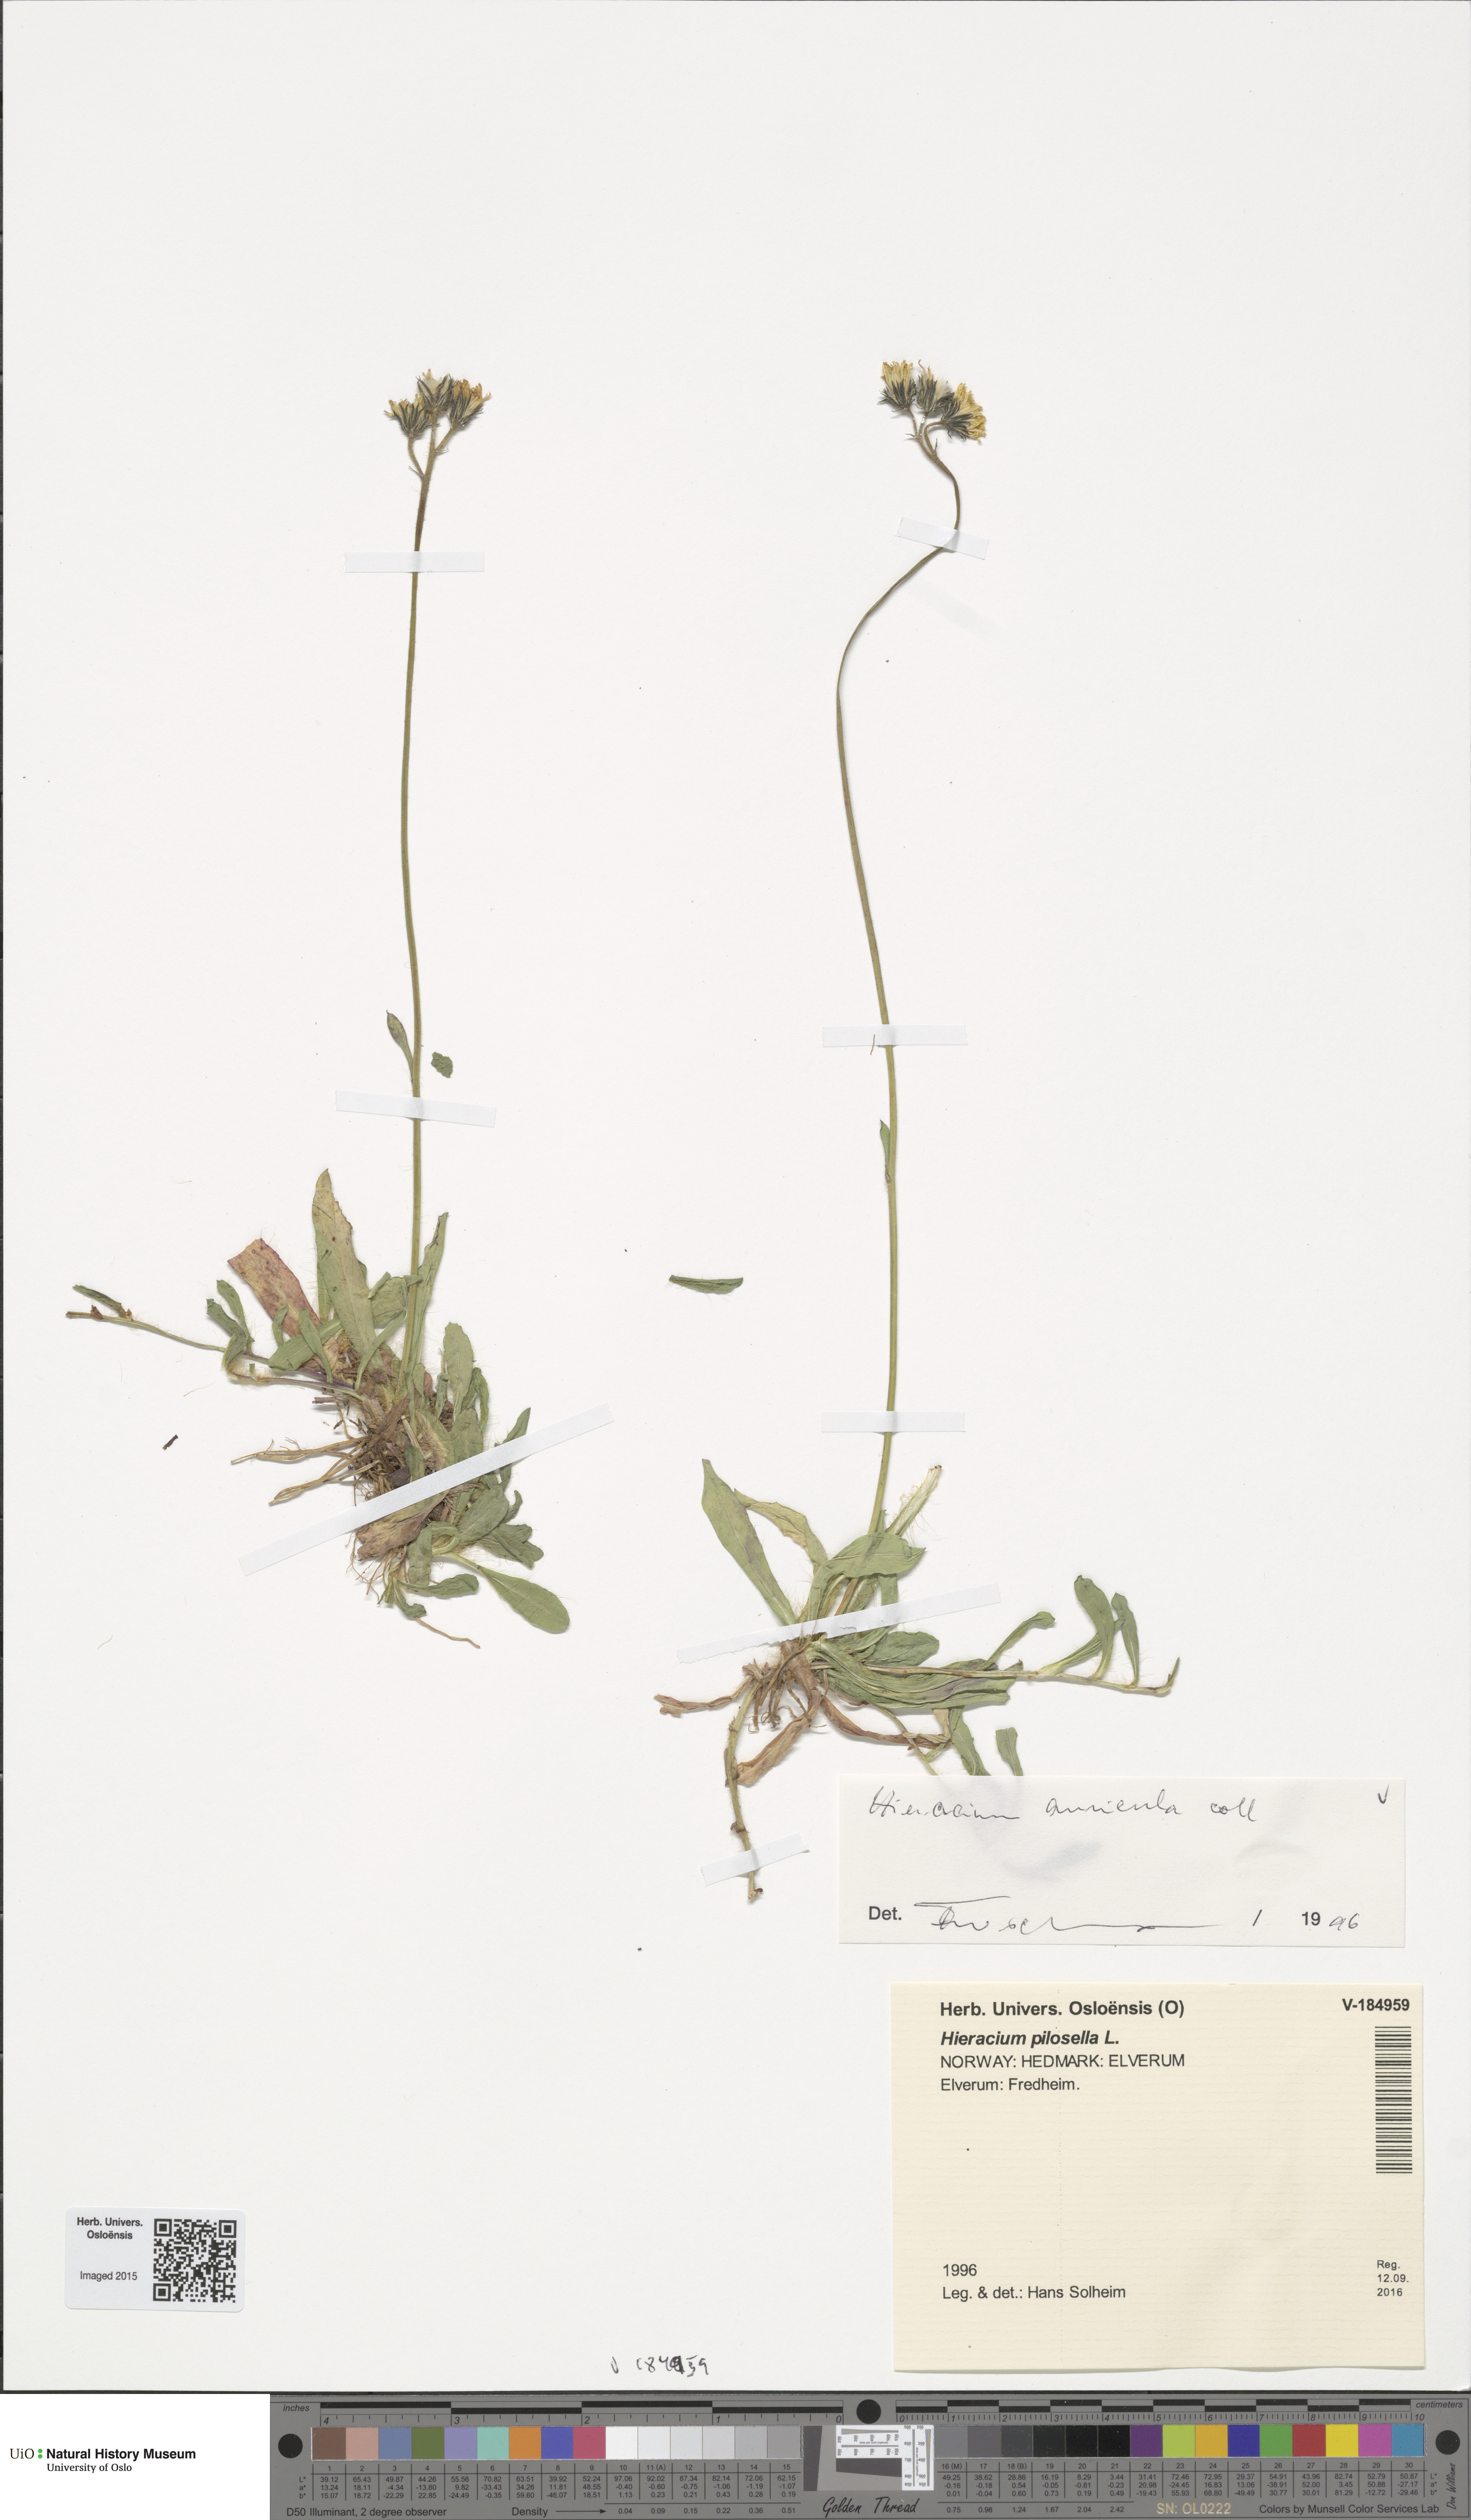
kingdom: Plantae
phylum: Tracheophyta
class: Magnoliopsida
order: Asterales
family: Asteraceae
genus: Pilosella
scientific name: Pilosella lactucella
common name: Glaucous fox-and-cubs
